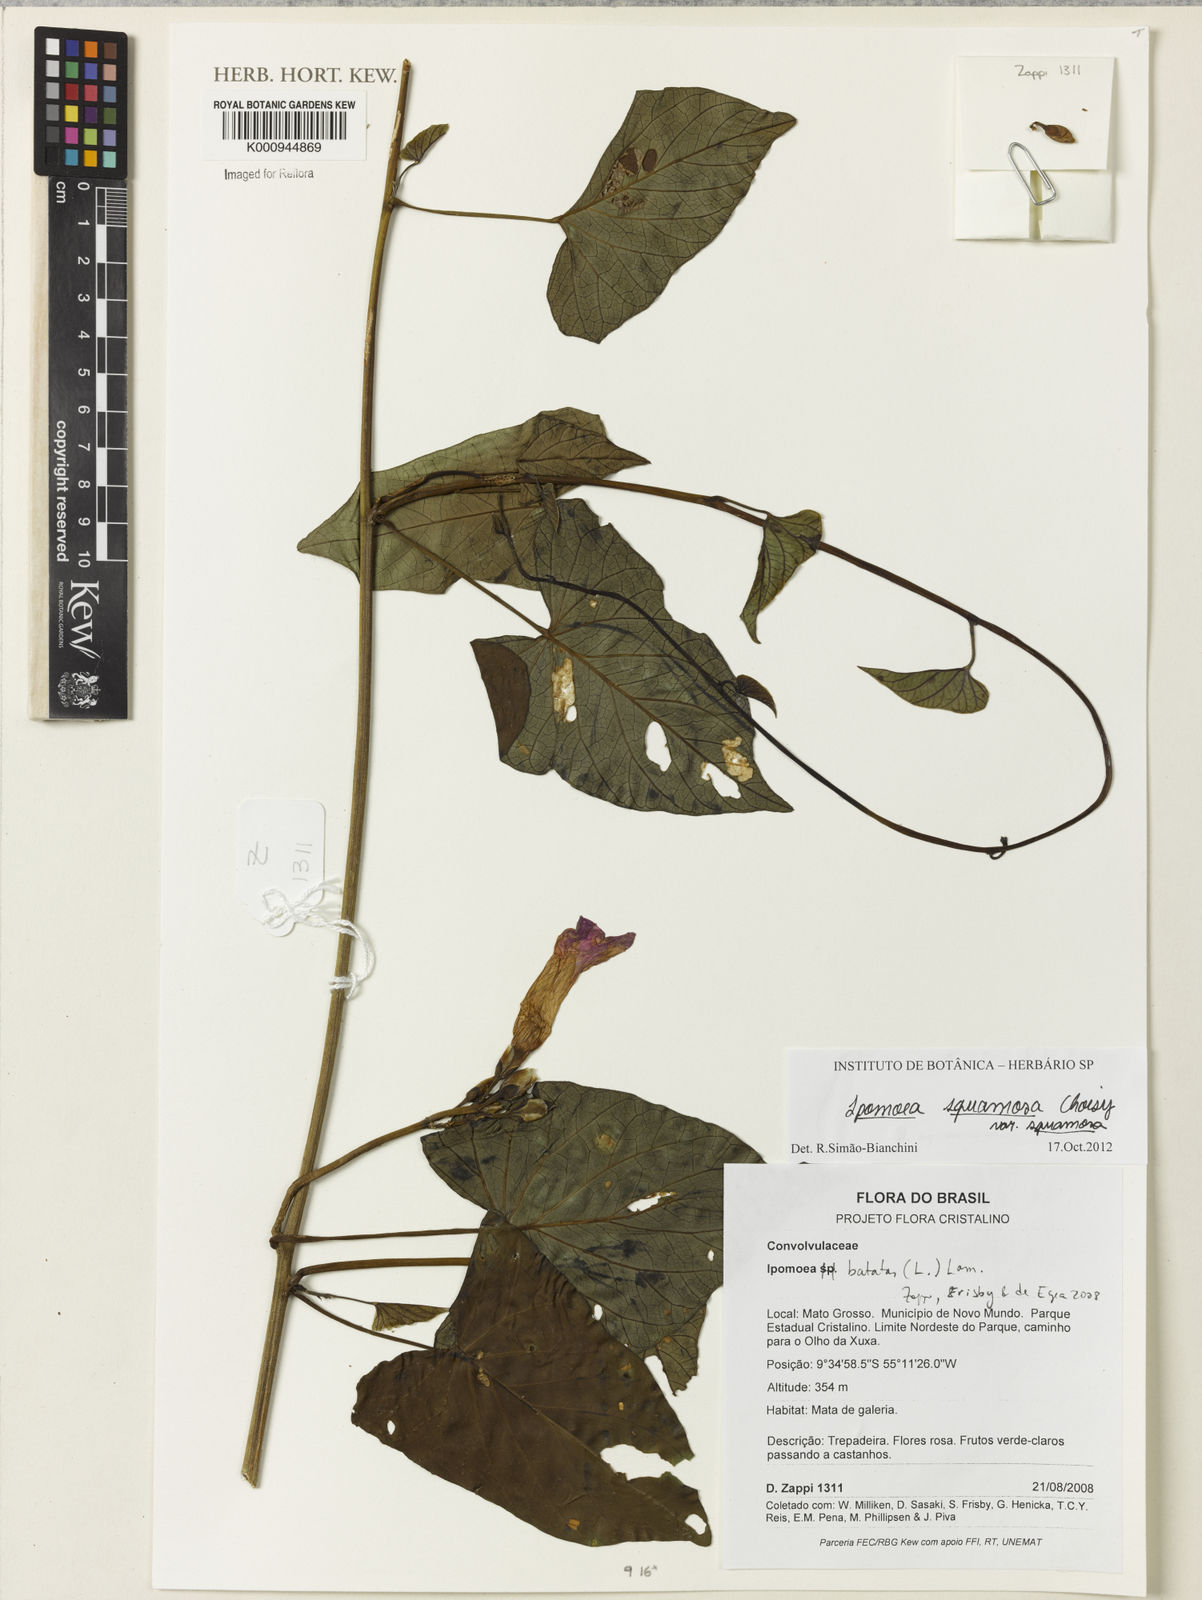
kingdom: Plantae
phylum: Tracheophyta
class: Magnoliopsida
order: Solanales
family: Convolvulaceae
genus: Ipomoea
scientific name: Ipomoea squamosa
